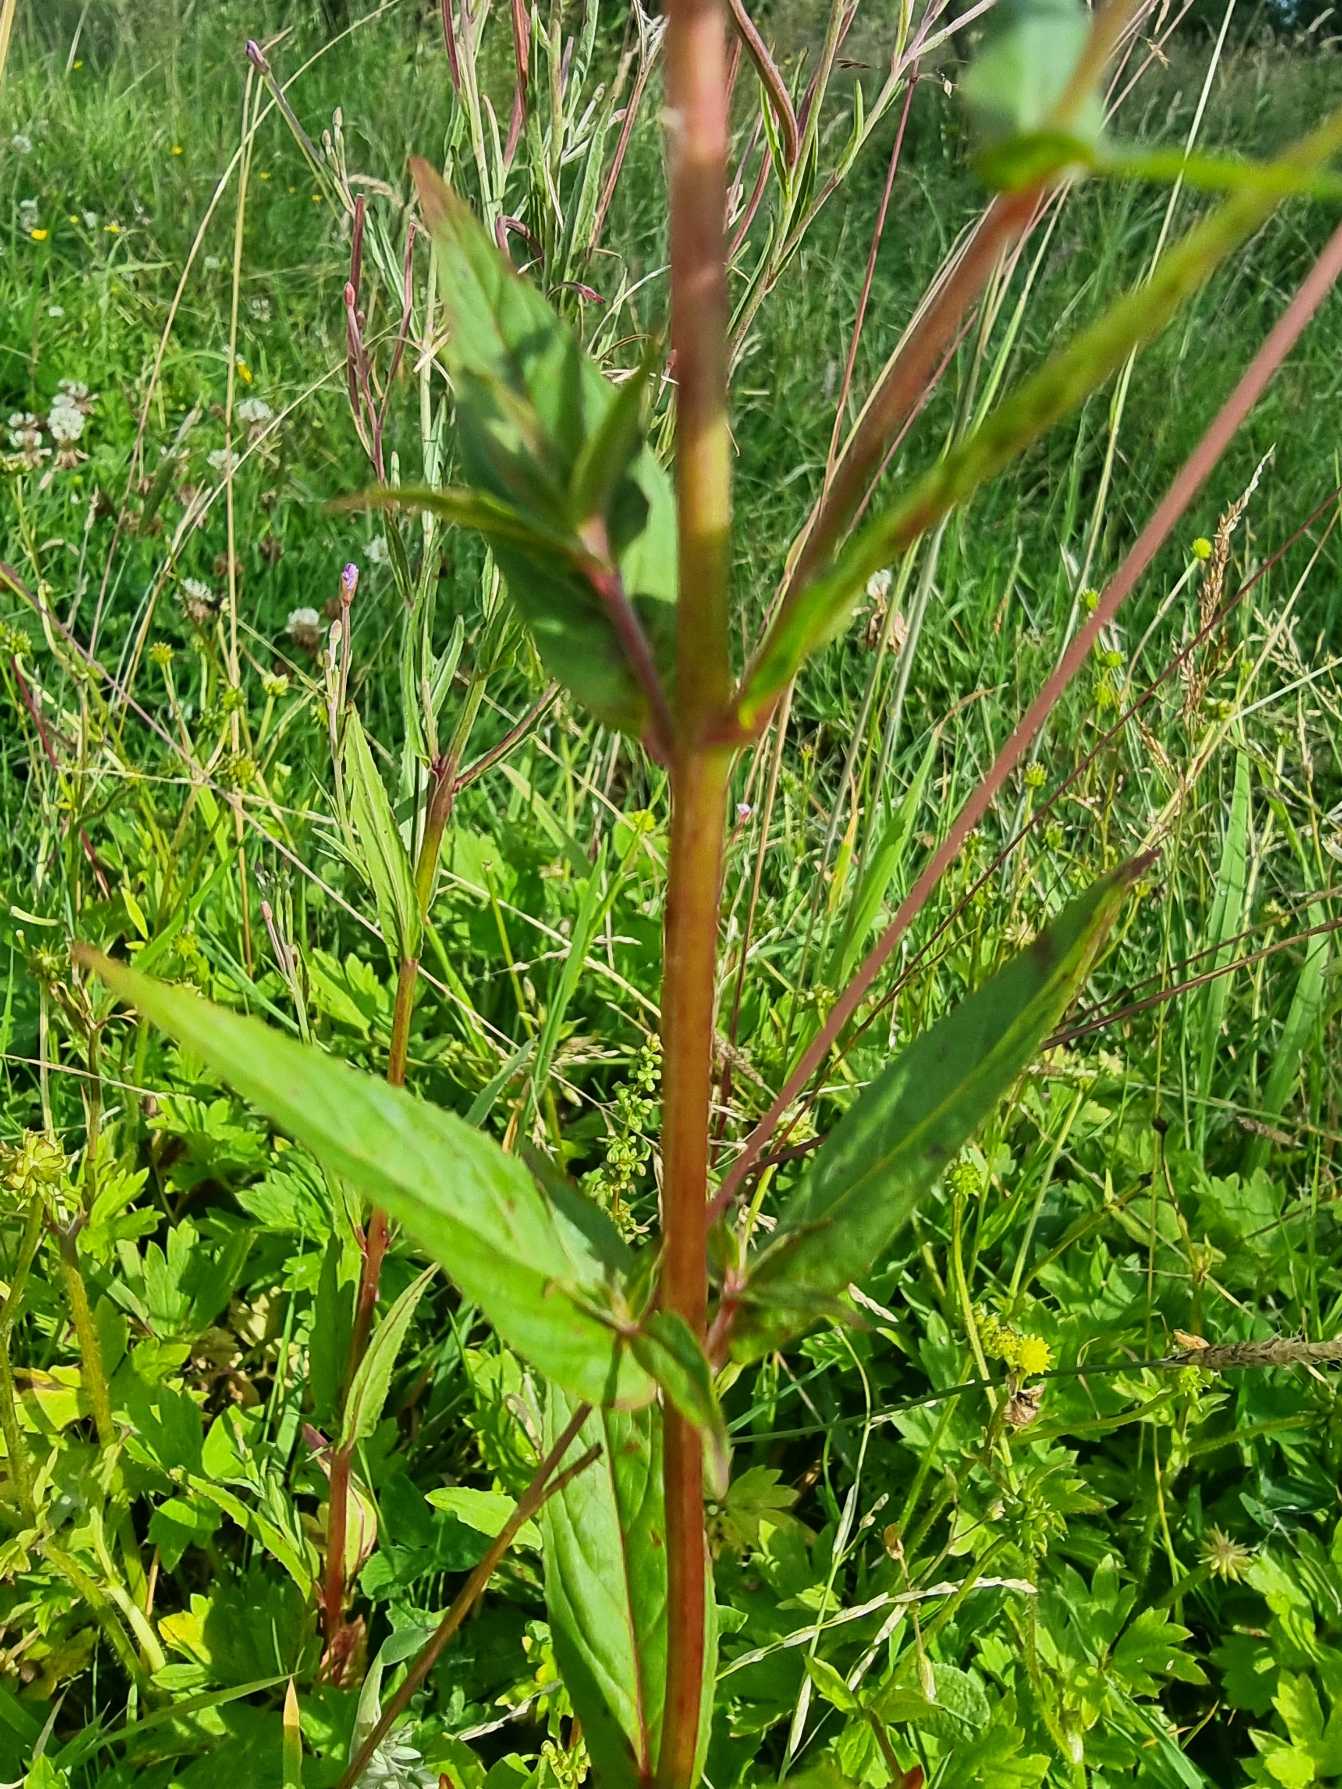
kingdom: Plantae
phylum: Tracheophyta
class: Magnoliopsida
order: Myrtales
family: Onagraceae
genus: Epilobium
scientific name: Epilobium ciliatum
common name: Kirtlet dueurt
